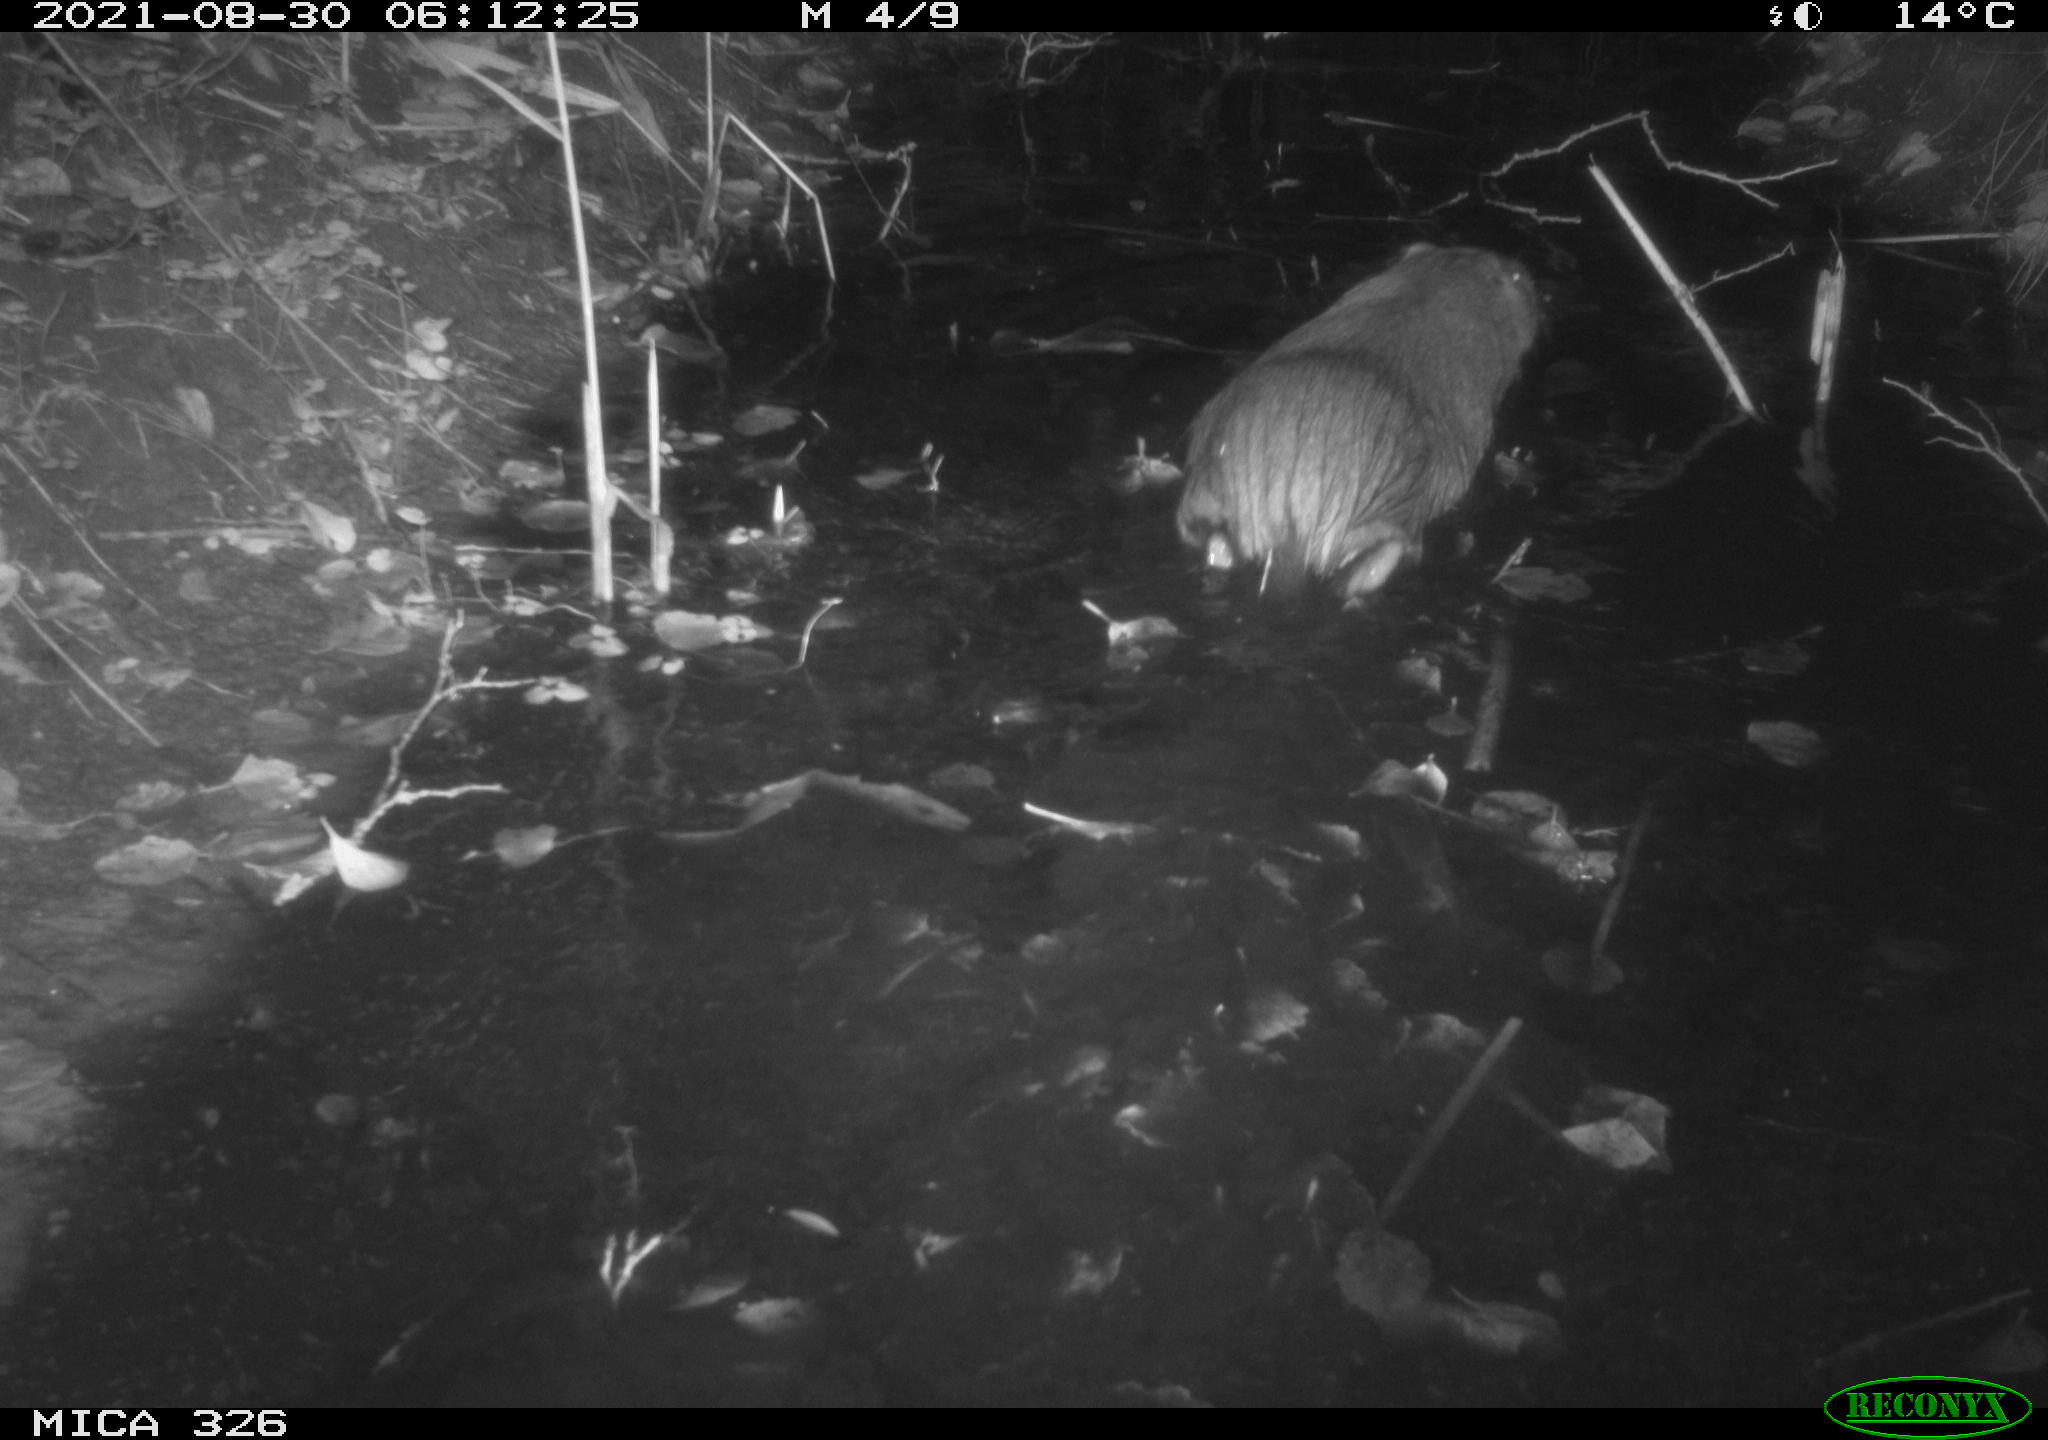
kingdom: Animalia
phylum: Chordata
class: Mammalia
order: Rodentia
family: Myocastoridae
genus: Myocastor
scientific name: Myocastor coypus
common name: Coypu
